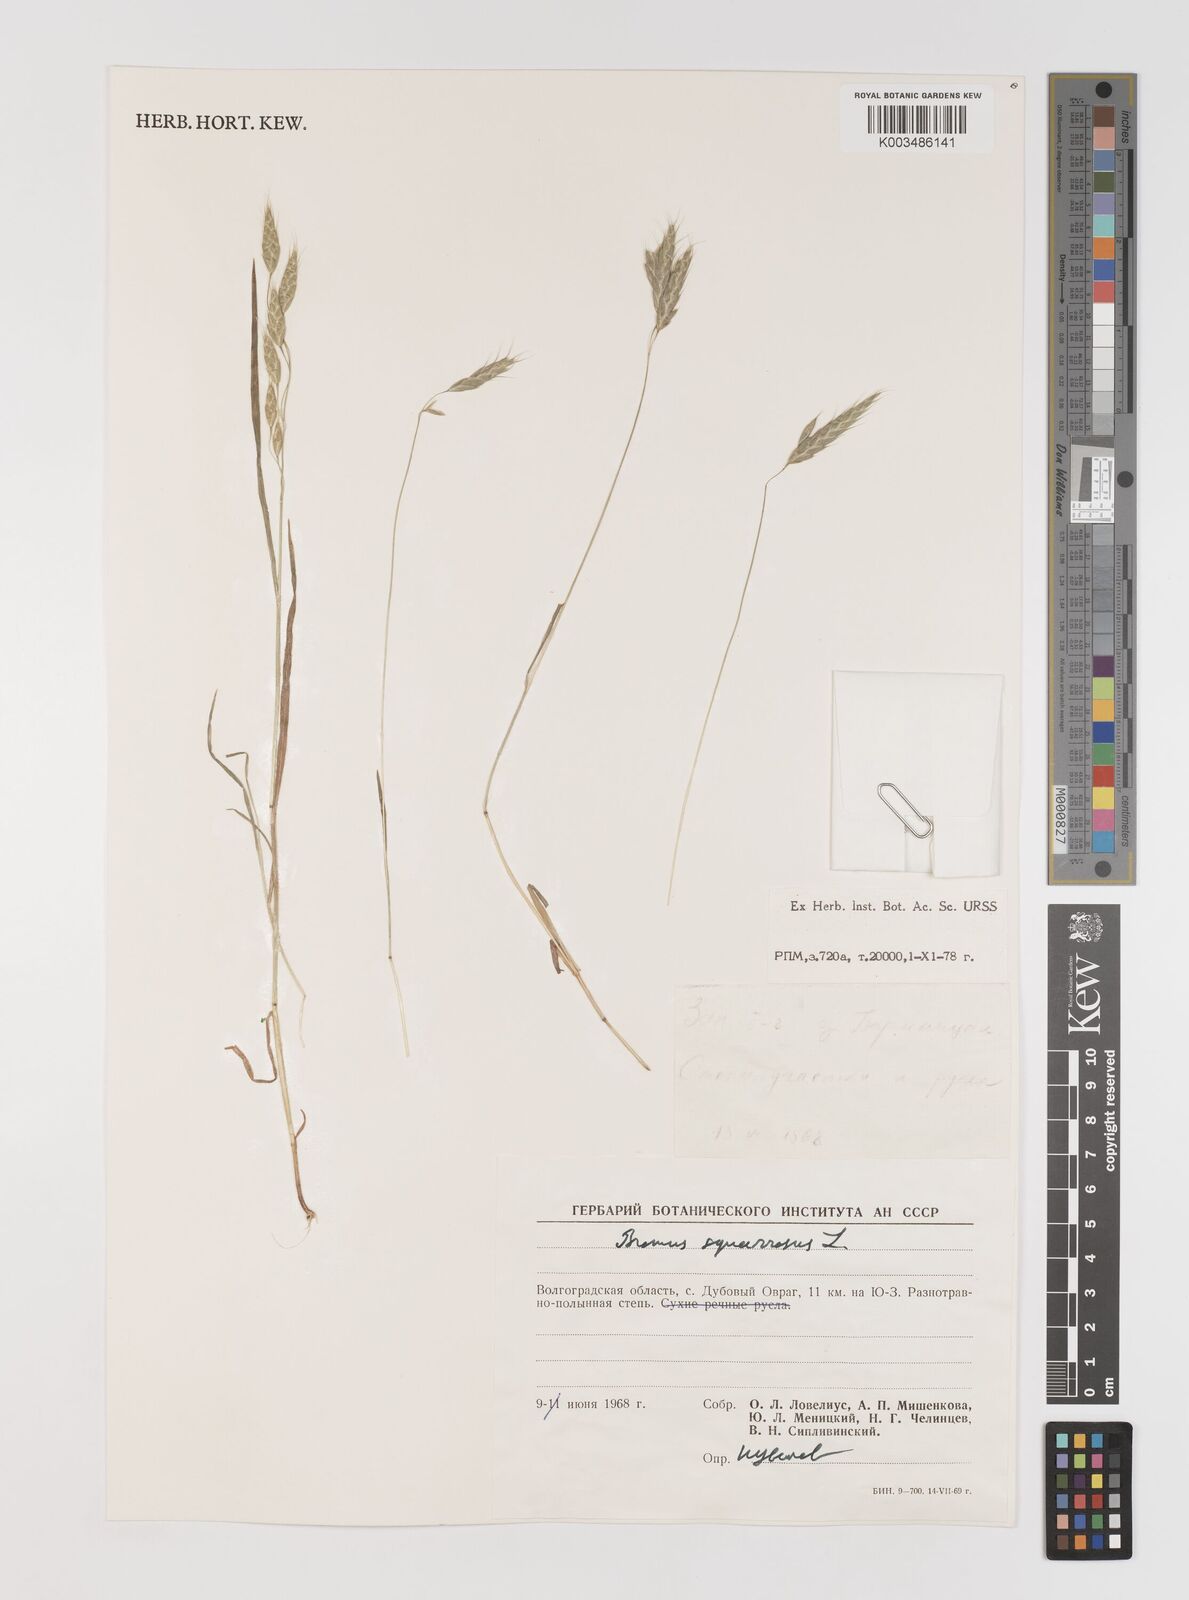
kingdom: Plantae
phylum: Tracheophyta
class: Liliopsida
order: Poales
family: Poaceae
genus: Bromus
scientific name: Bromus squarrosus
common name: Corn brome
